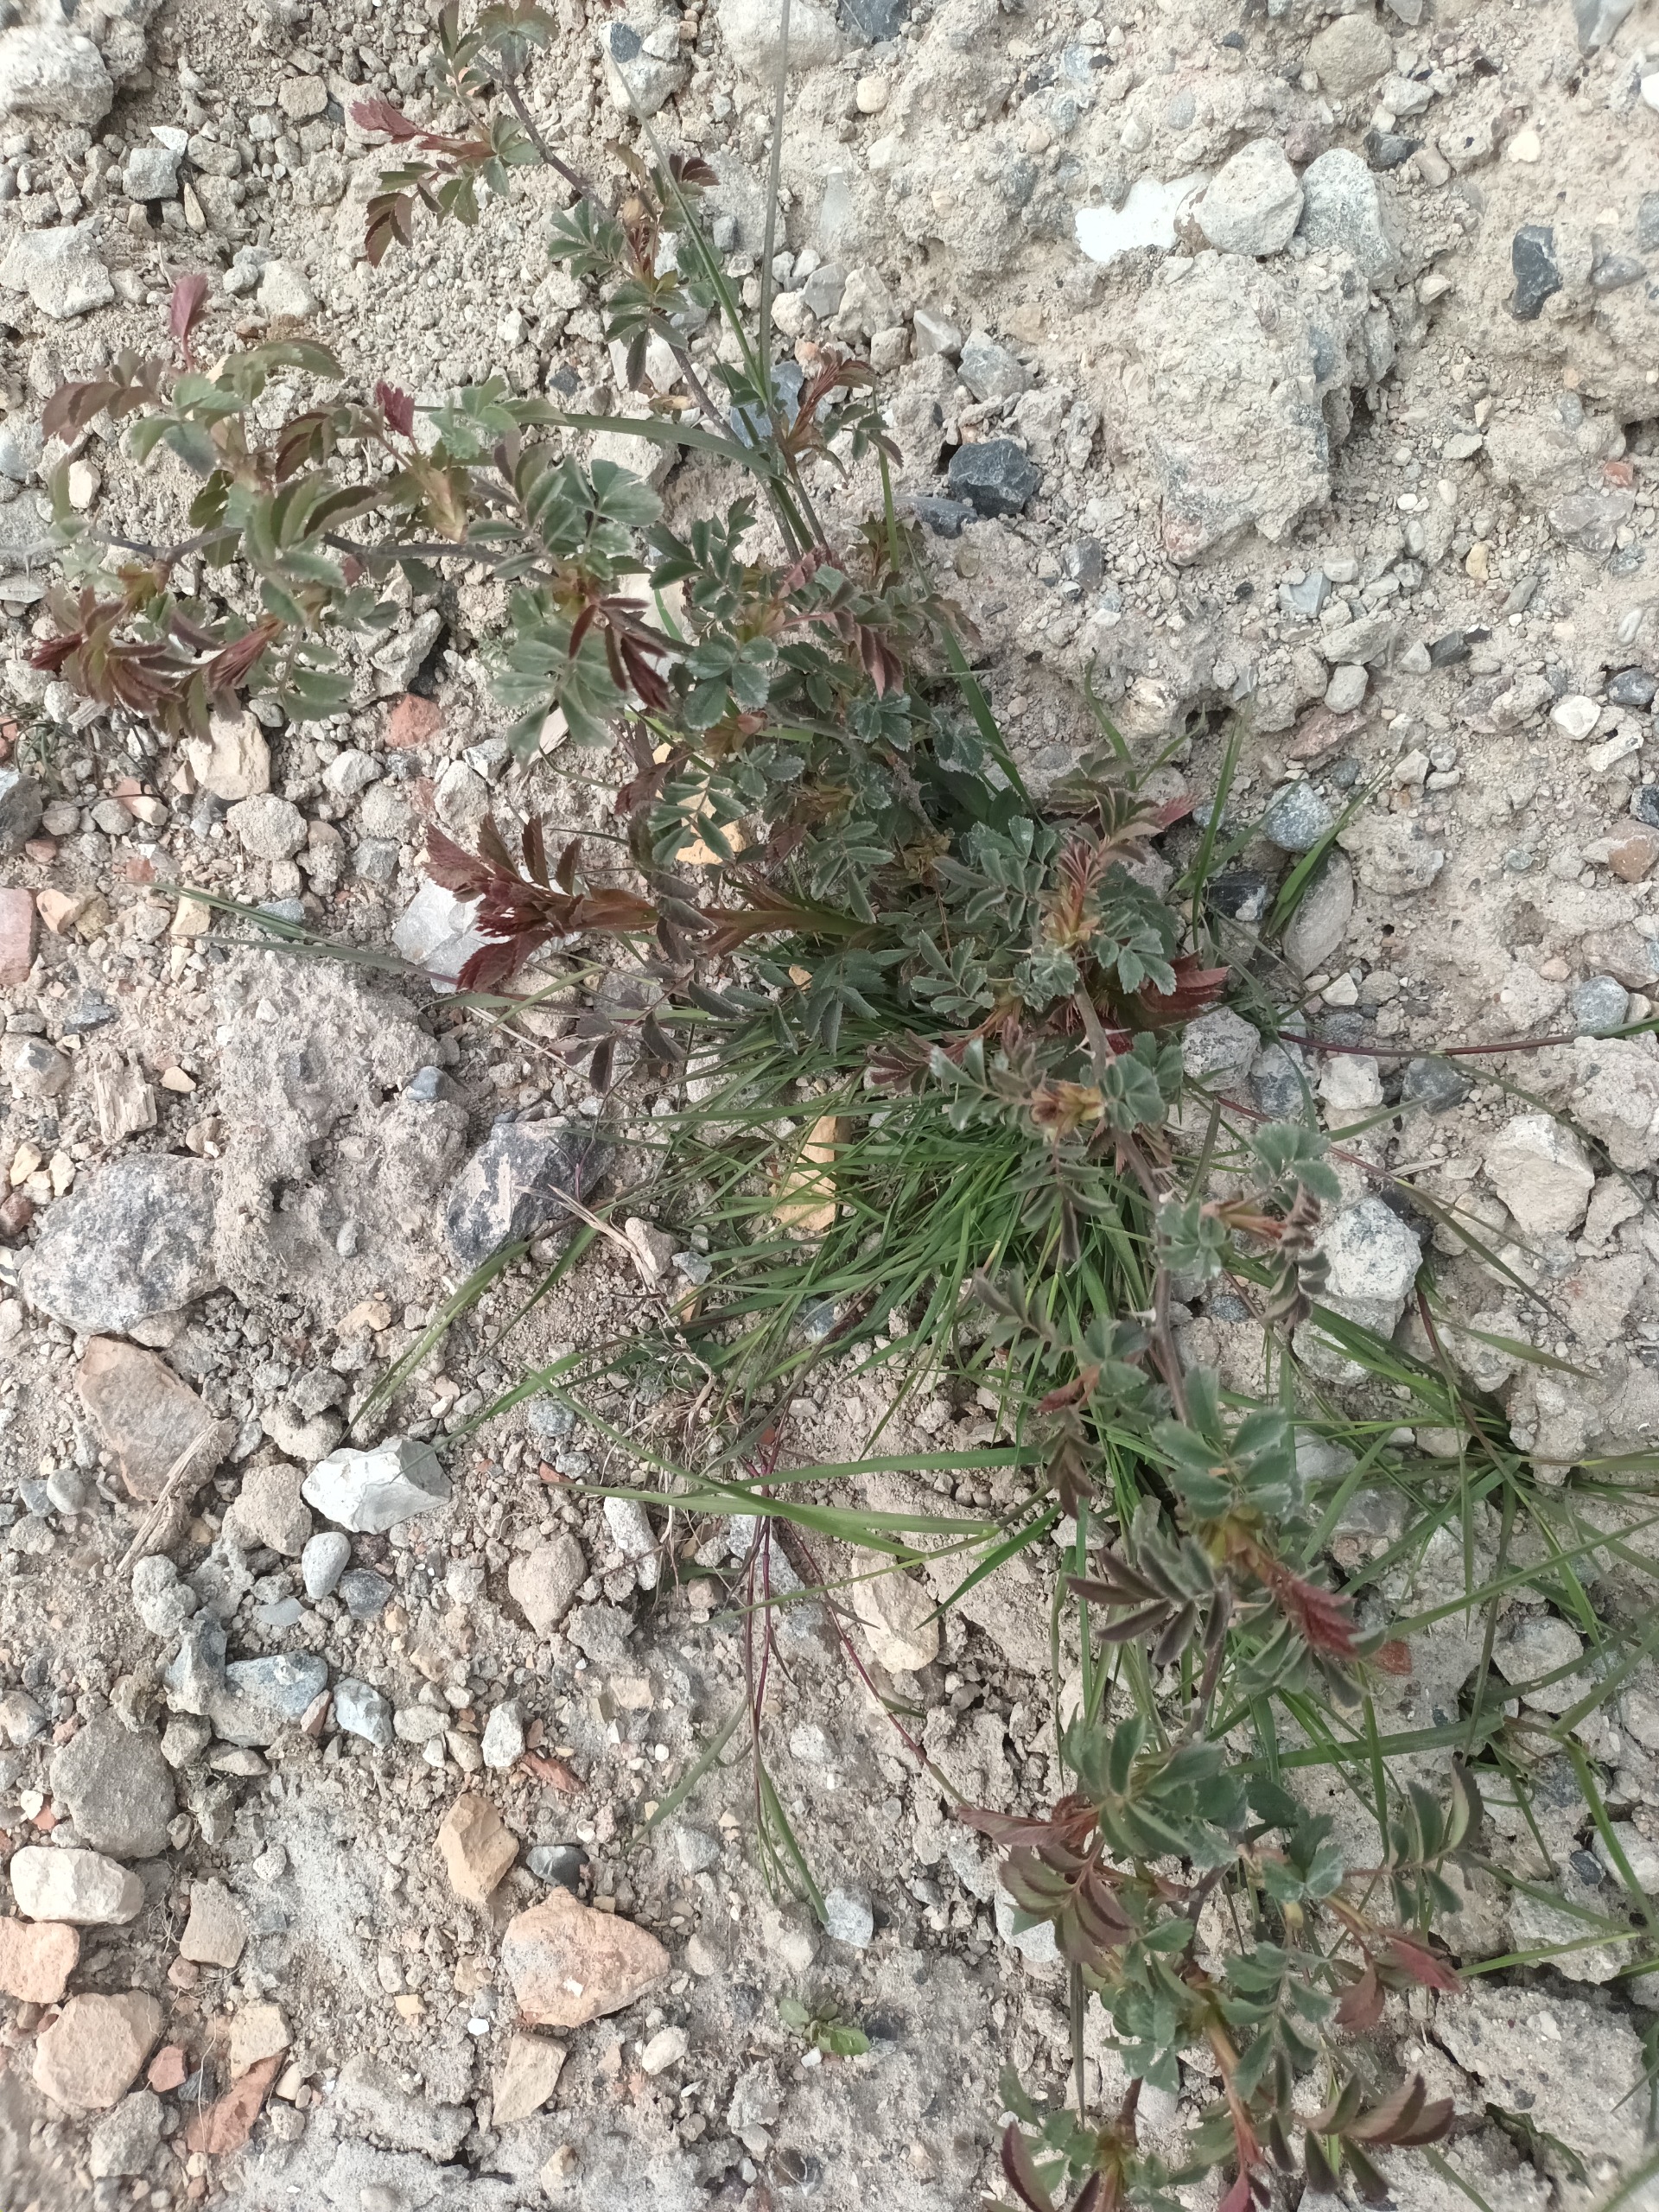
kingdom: Plantae
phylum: Tracheophyta
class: Magnoliopsida
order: Rosales
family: Rosaceae
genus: Rosa
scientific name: Rosa glauca
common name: Kobber-rose
